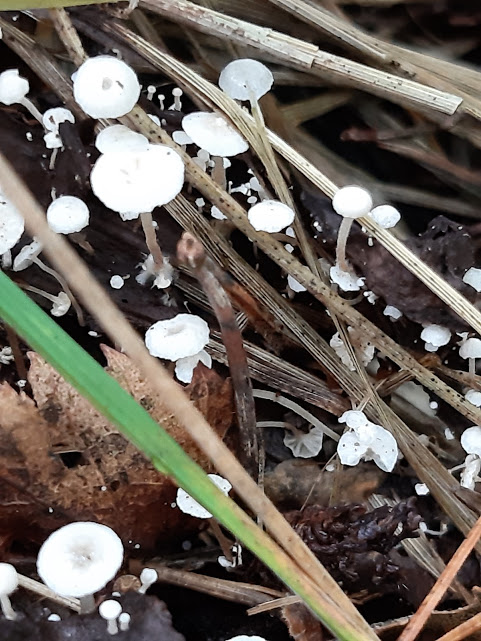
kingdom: Fungi
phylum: Basidiomycota
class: Agaricomycetes
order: Agaricales
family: Tricholomataceae
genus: Collybia
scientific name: Collybia
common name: lighat
